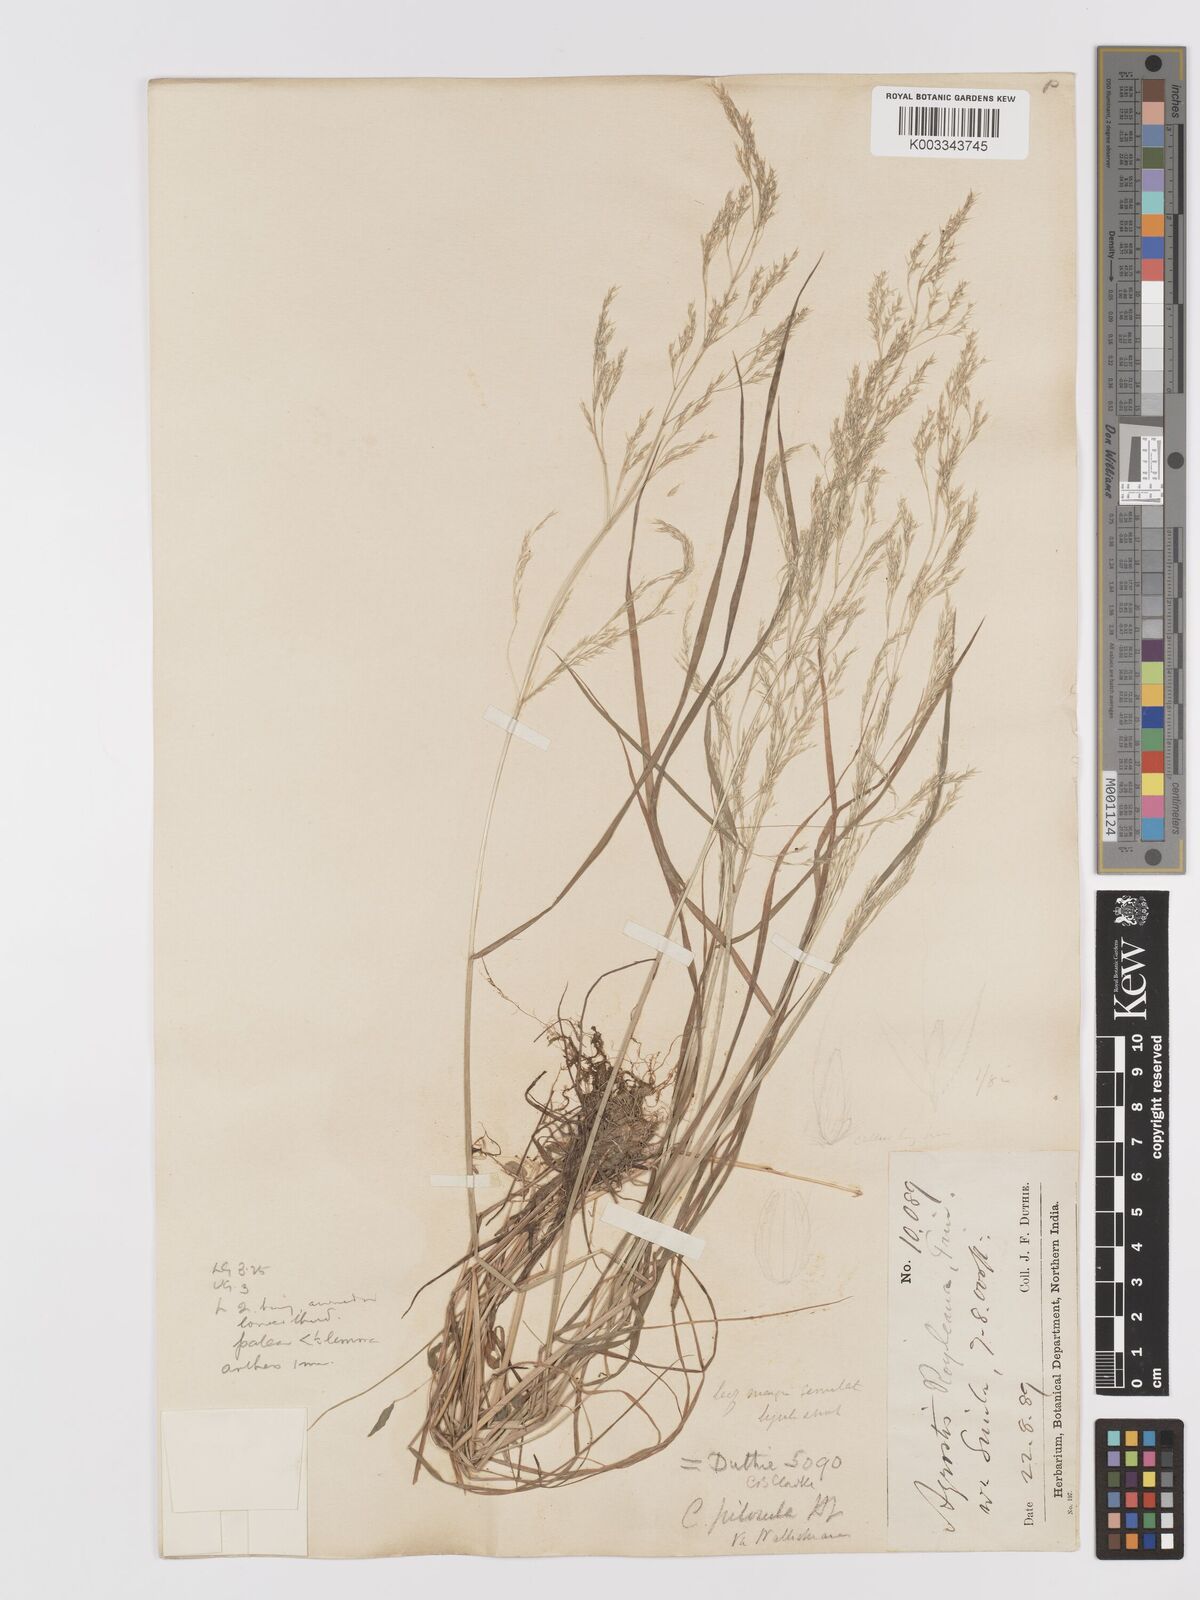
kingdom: Plantae
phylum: Tracheophyta
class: Liliopsida
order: Poales
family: Poaceae
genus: Agrostis
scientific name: Agrostis pilosula
